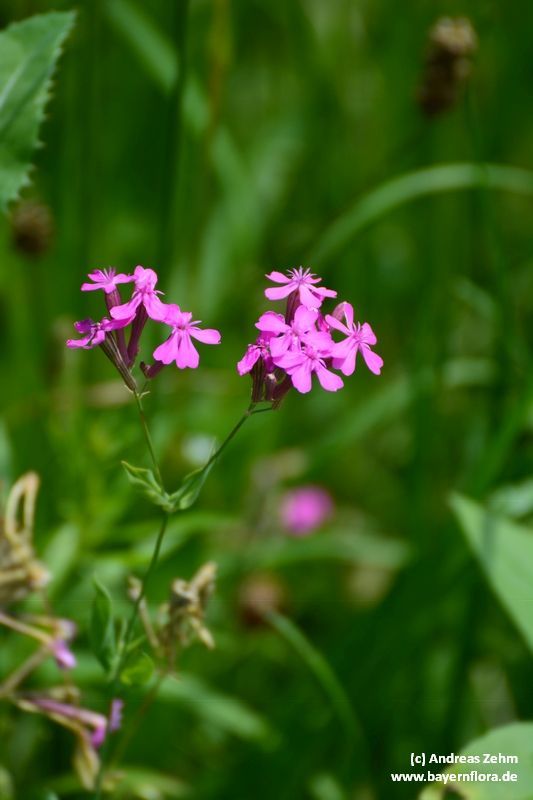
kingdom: Plantae
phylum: Tracheophyta
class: Magnoliopsida
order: Caryophyllales
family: Caryophyllaceae
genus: Atocion
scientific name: Atocion armeria
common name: Sweet william catchfly
